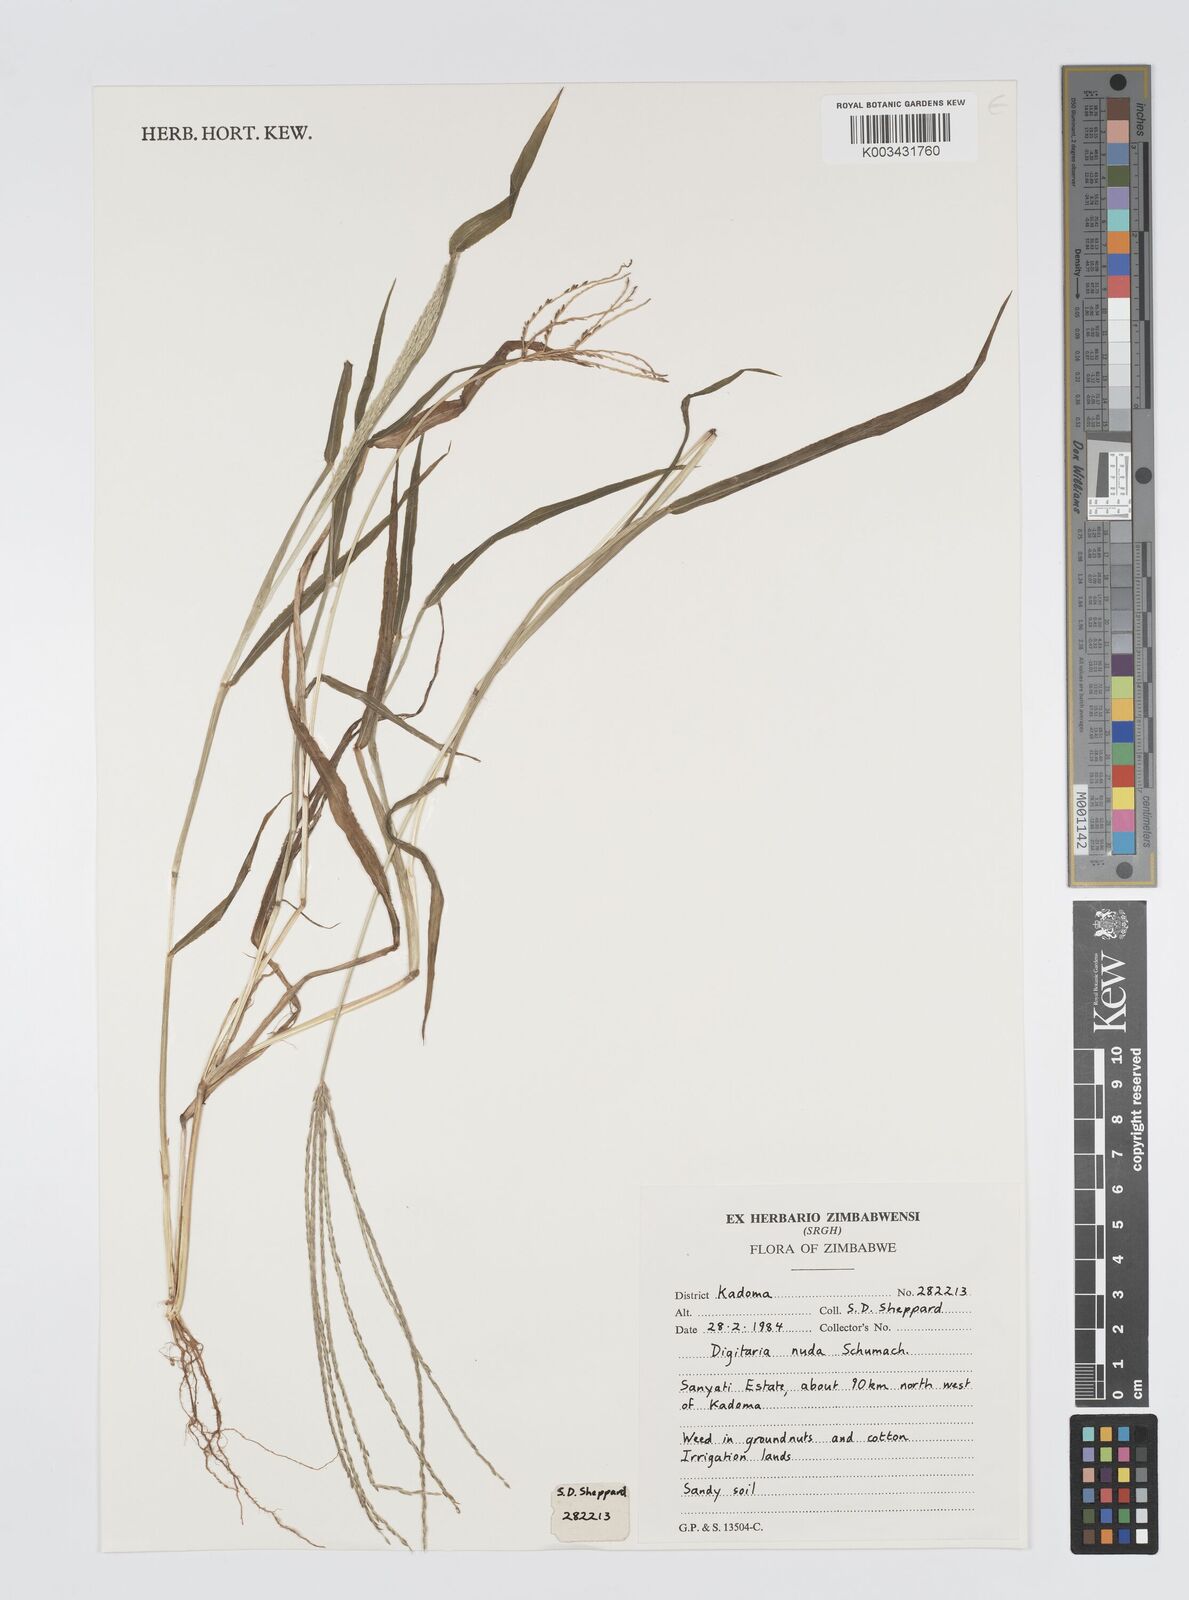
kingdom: Plantae
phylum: Tracheophyta
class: Liliopsida
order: Poales
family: Poaceae
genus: Digitaria
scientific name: Digitaria nuda
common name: Naked crabgrass
